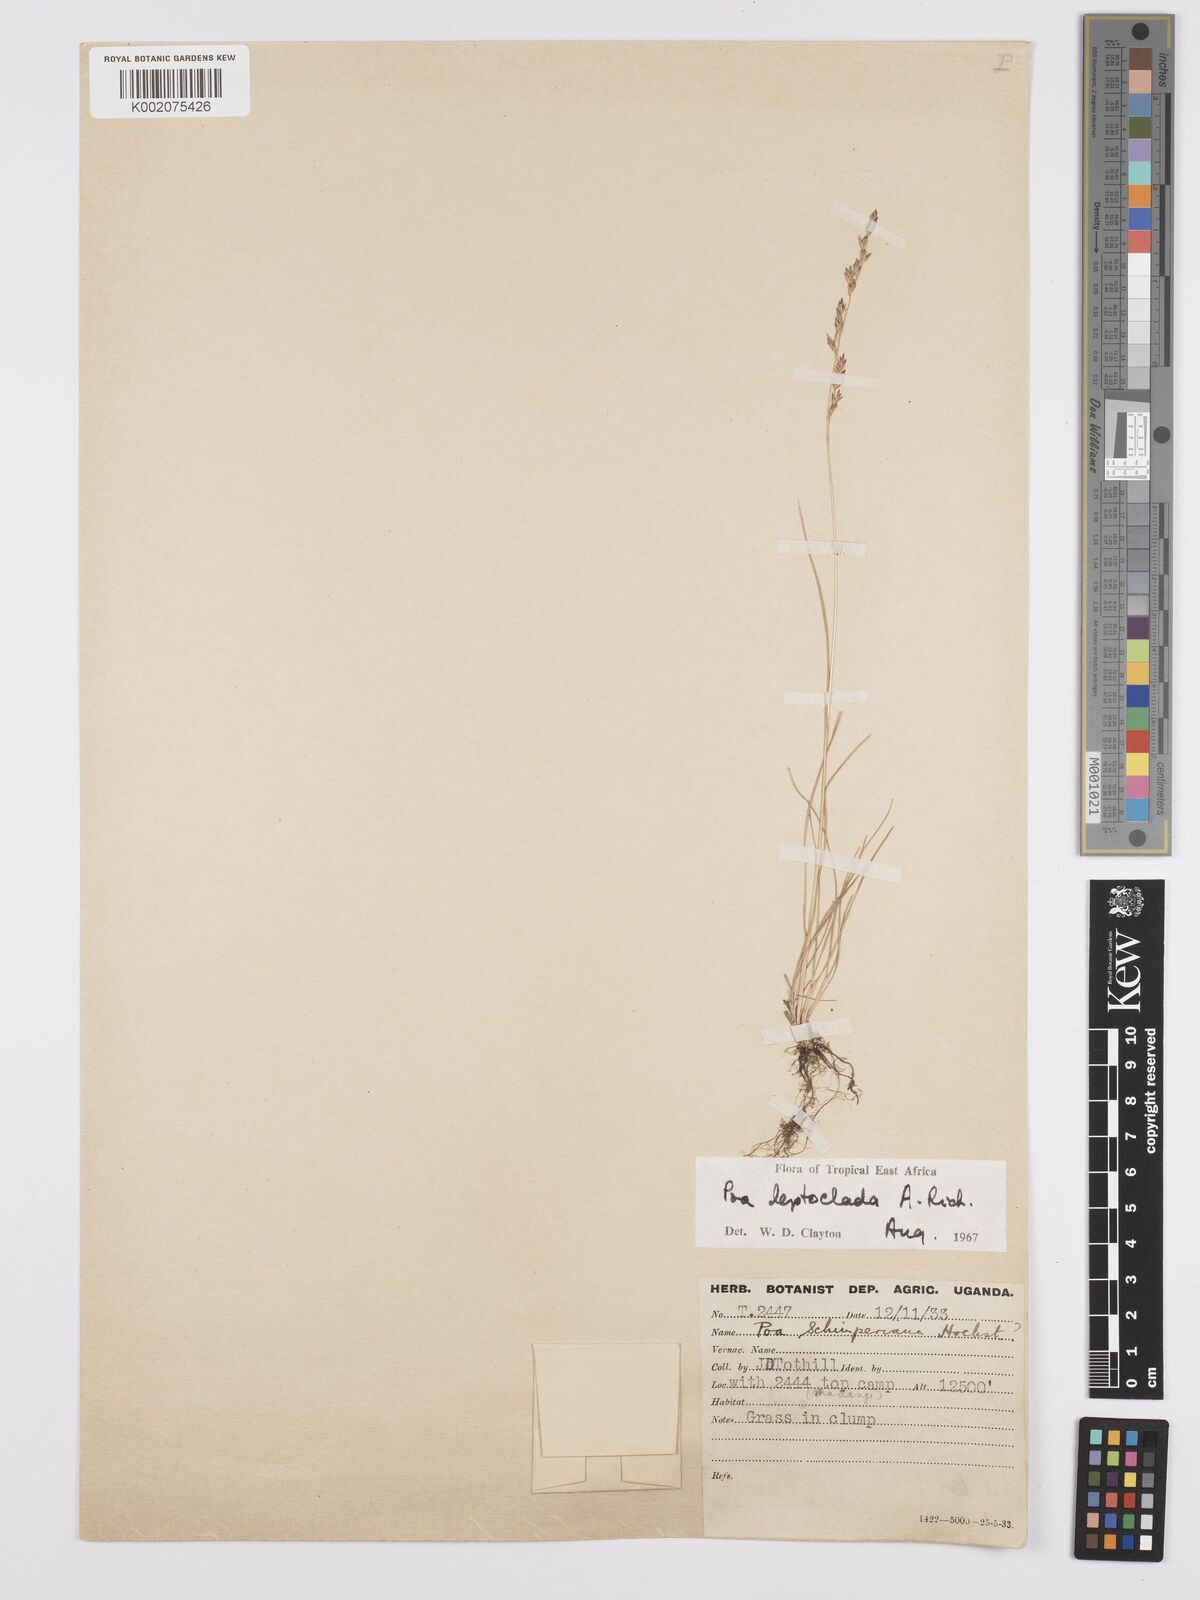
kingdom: Plantae
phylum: Tracheophyta
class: Liliopsida
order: Poales
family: Poaceae
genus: Poa
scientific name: Poa
